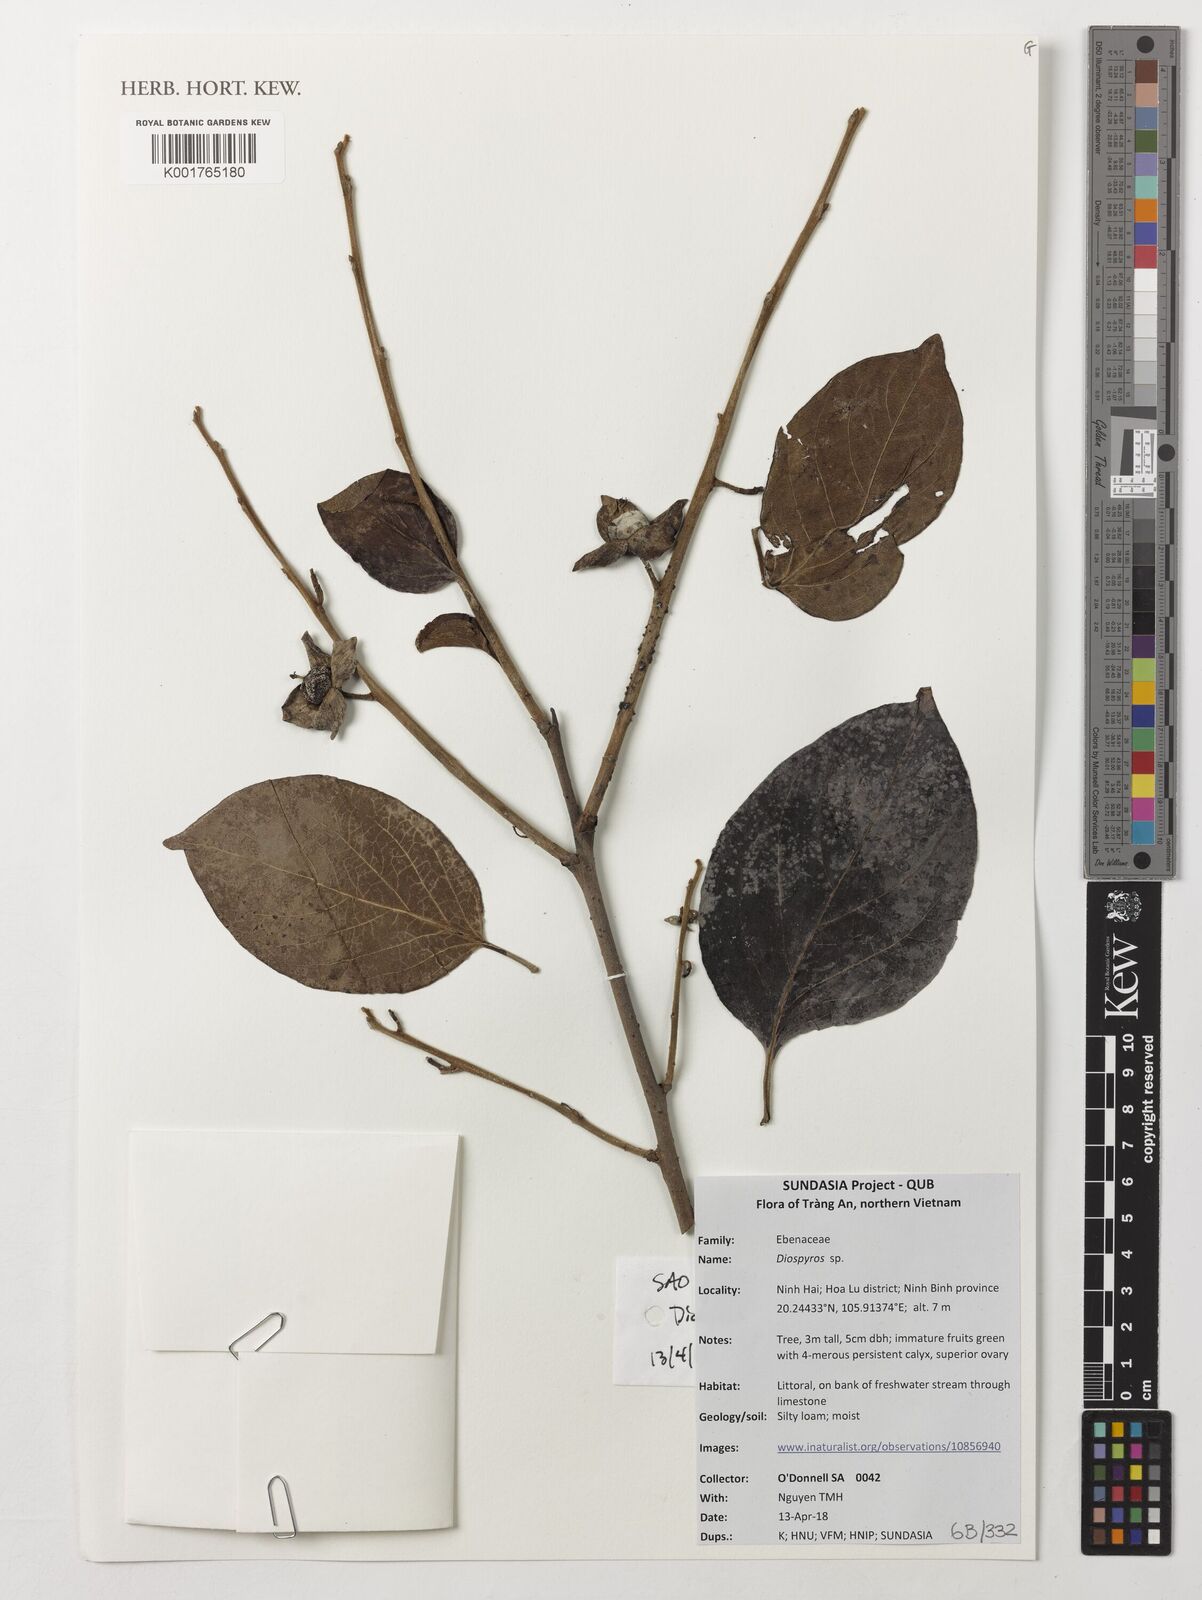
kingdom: Plantae
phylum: Tracheophyta
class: Magnoliopsida
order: Ericales
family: Ebenaceae
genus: Diospyros
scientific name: Diospyros
